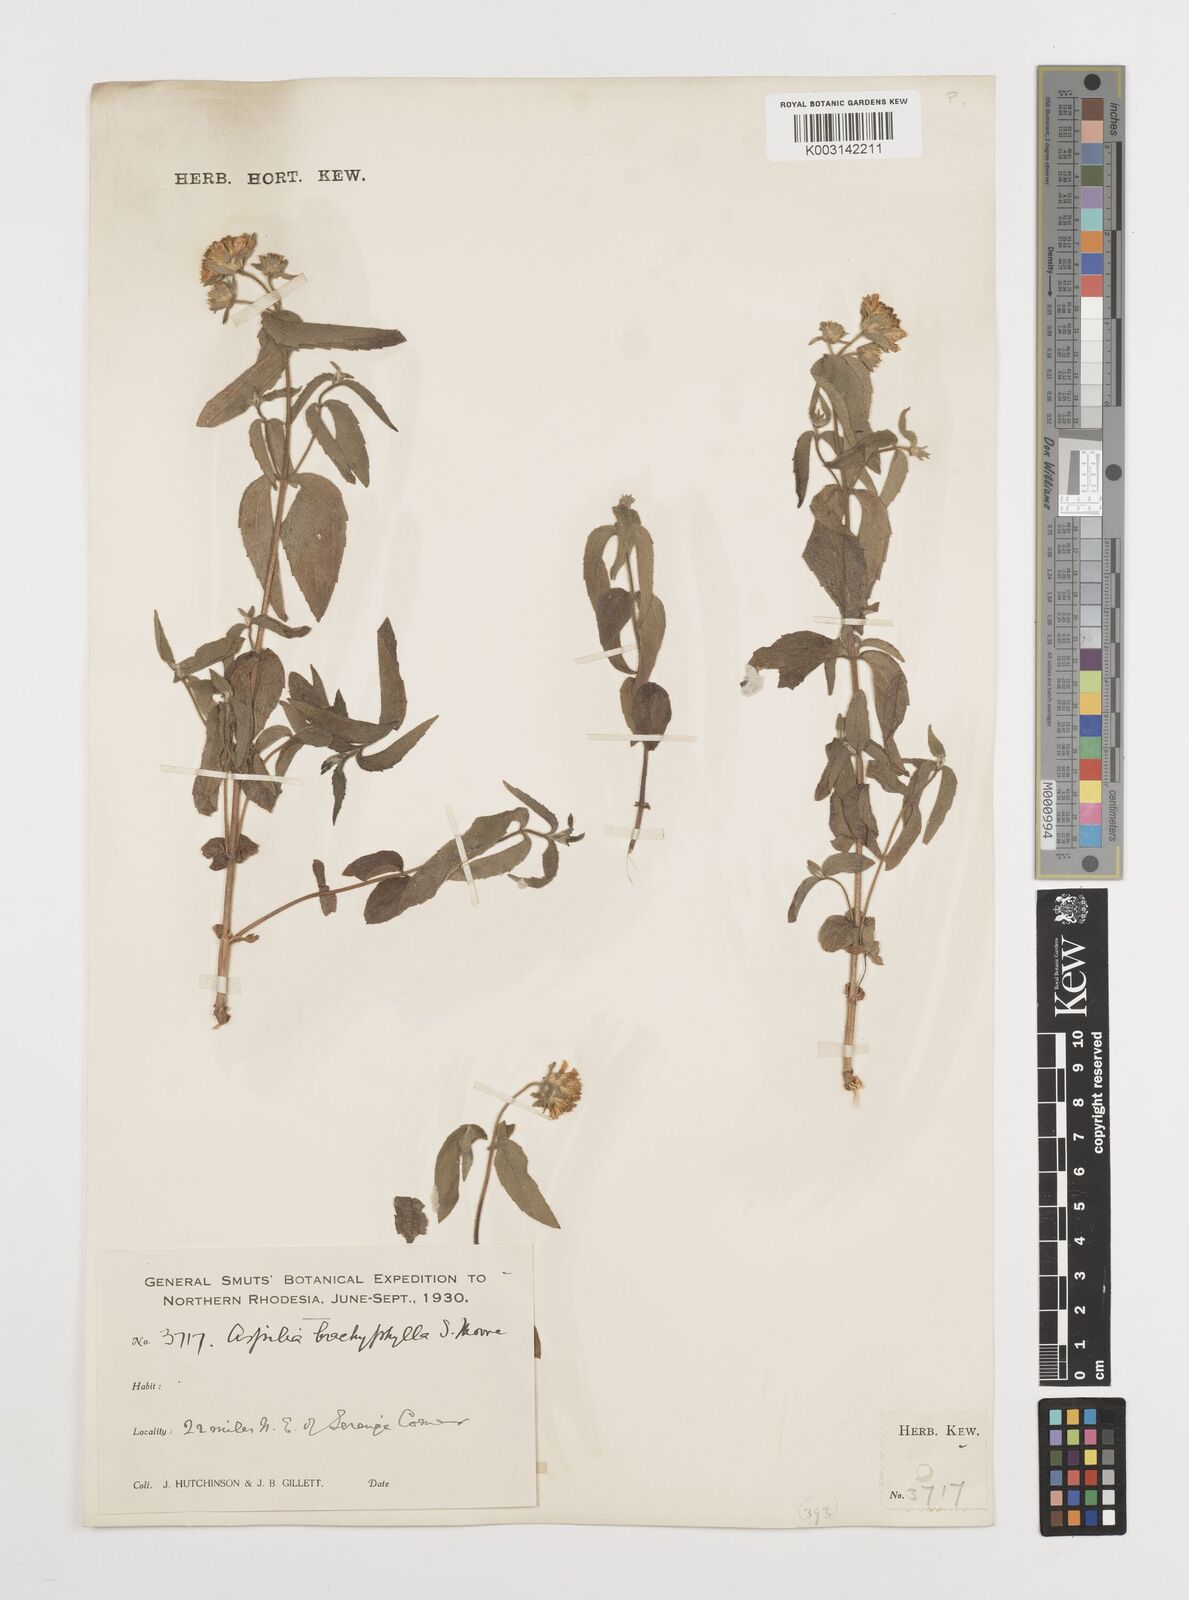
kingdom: Plantae
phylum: Tracheophyta
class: Magnoliopsida
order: Asterales
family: Asteraceae
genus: Aspilia
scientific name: Aspilia pluriseta
